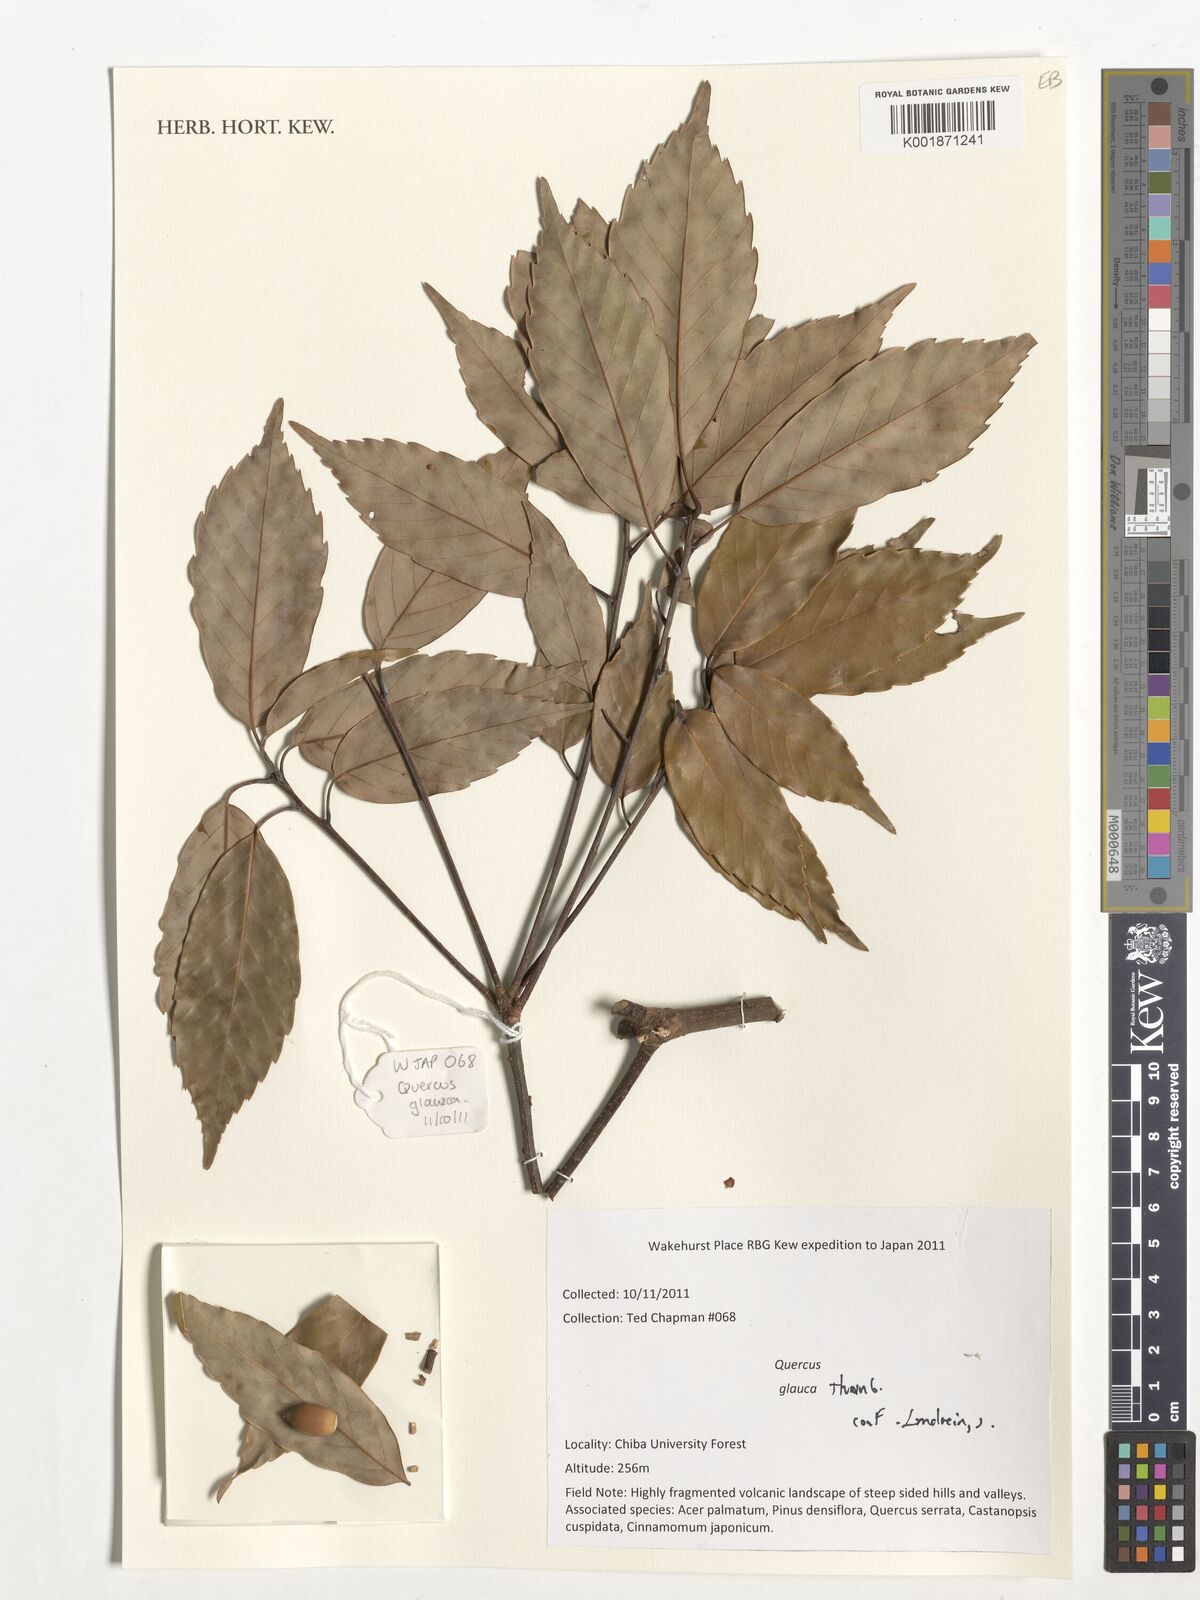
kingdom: Plantae
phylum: Tracheophyta
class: Magnoliopsida
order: Fagales
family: Fagaceae
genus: Quercus
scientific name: Quercus glauca
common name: Ring-cup oak
